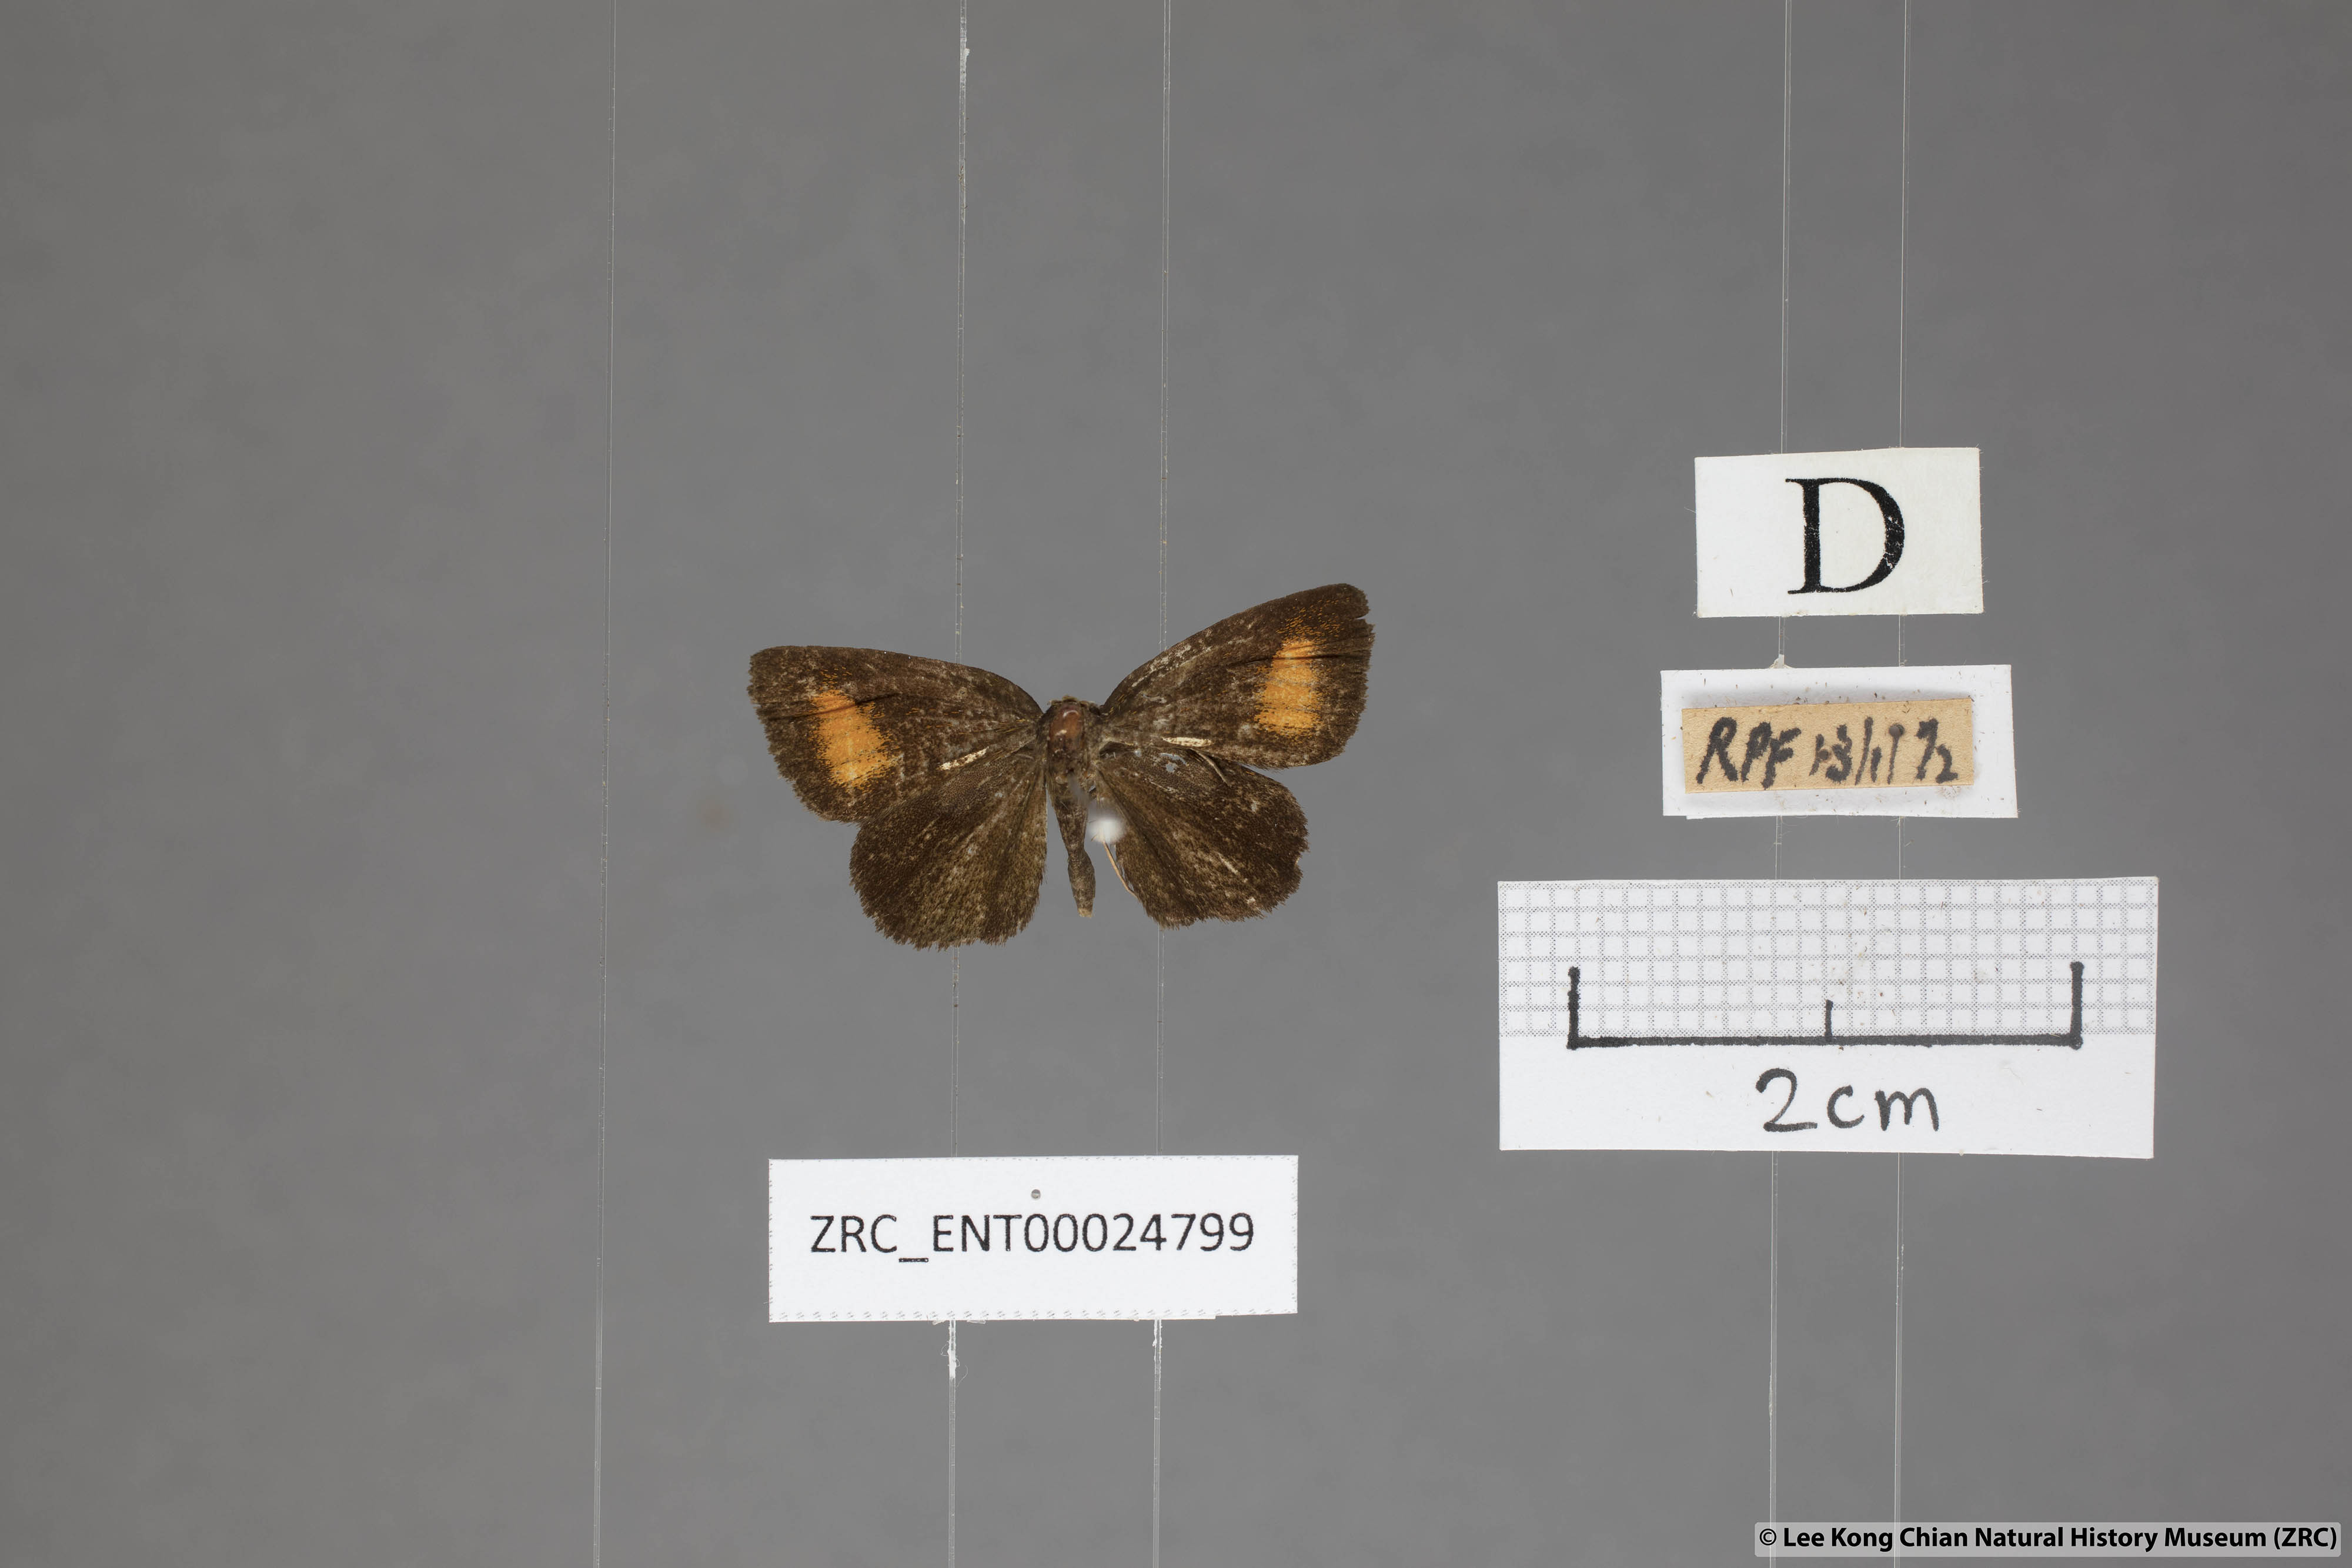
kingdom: Animalia
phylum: Arthropoda
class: Insecta
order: Lepidoptera
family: Hesperiidae
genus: Iambrix
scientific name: Iambrix Idmon obliquans
